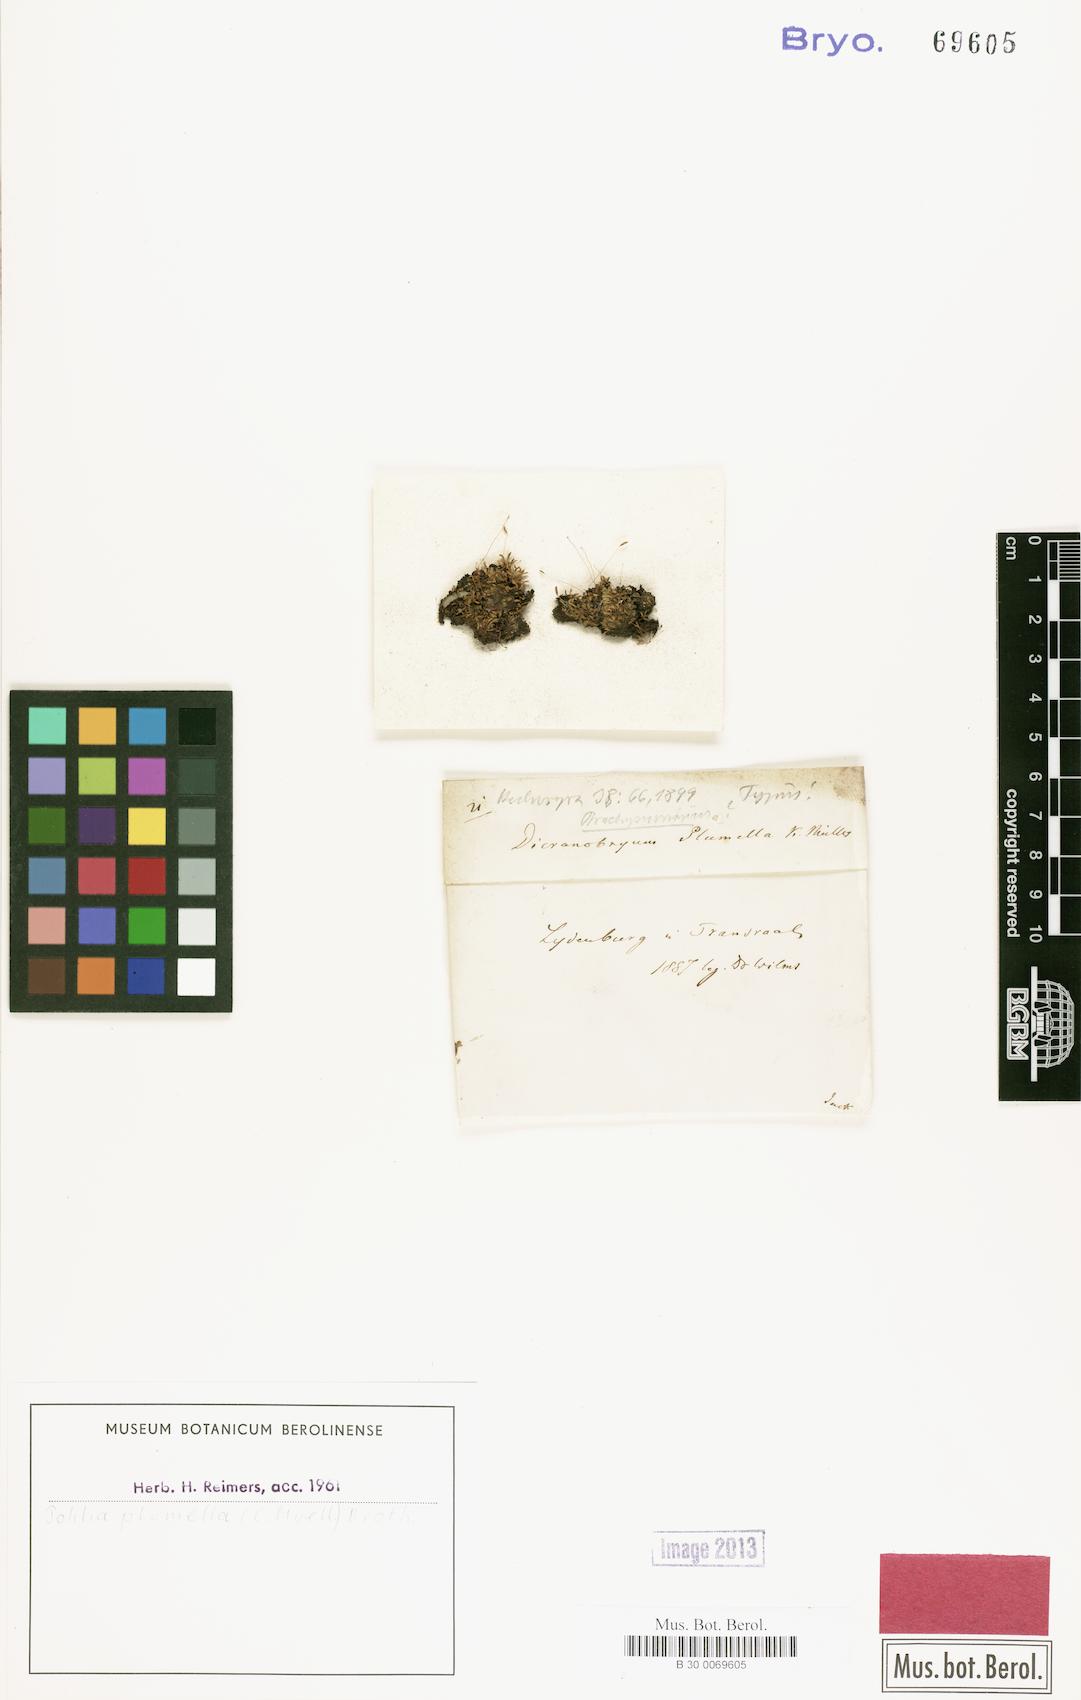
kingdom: Plantae
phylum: Bryophyta
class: Bryopsida
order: Bryales
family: Mniaceae
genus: Pohlia
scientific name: Pohlia plumella
